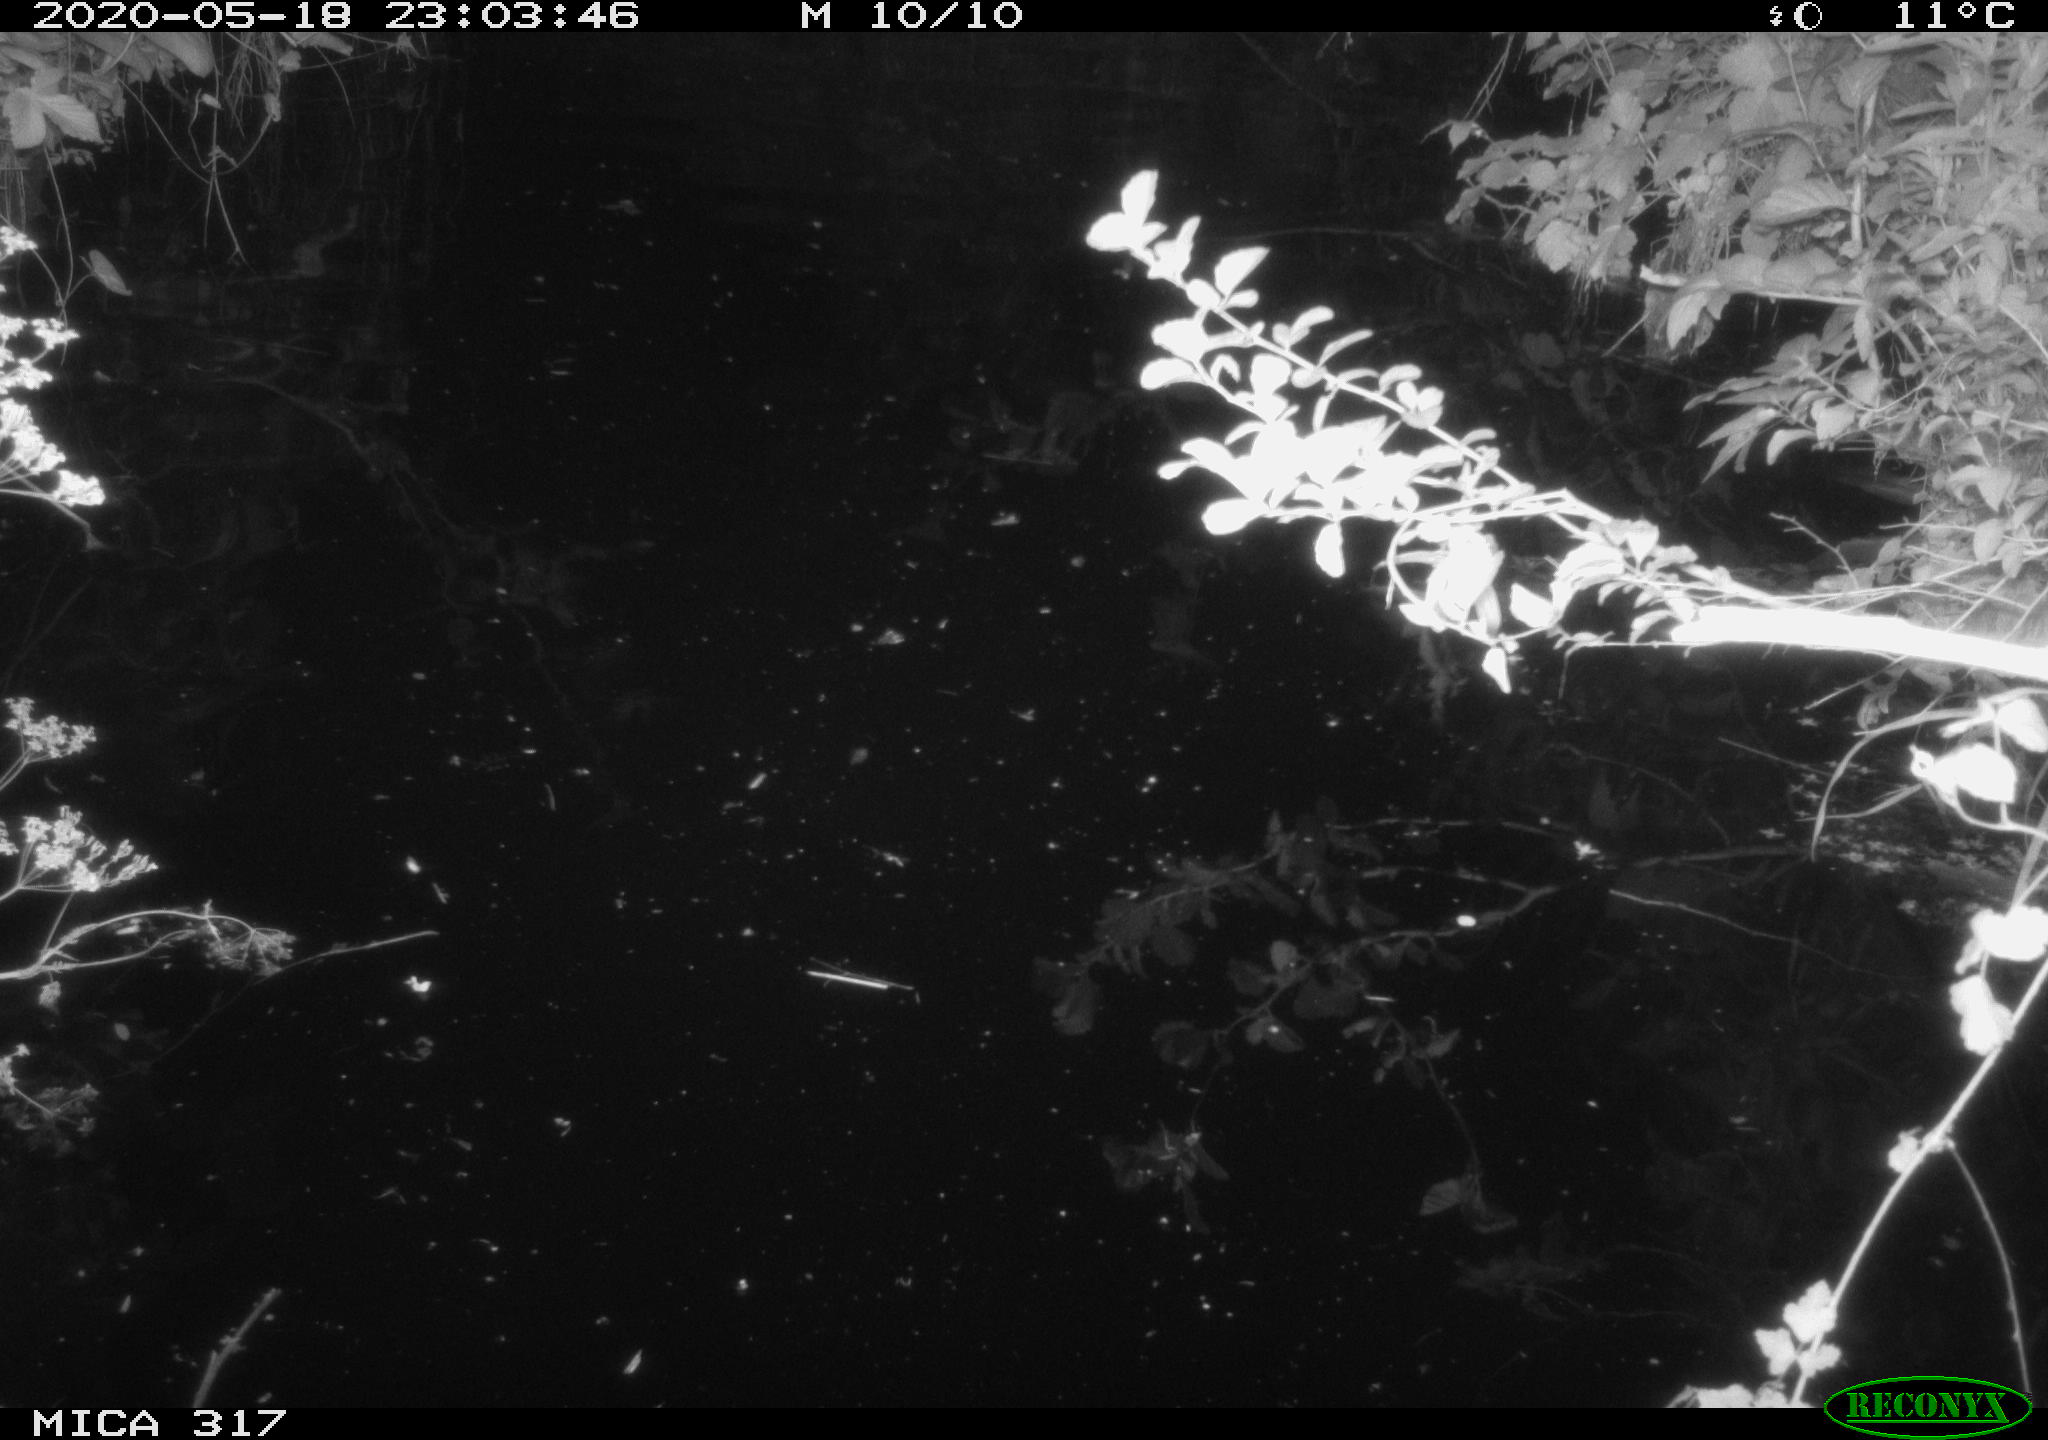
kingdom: Animalia
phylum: Chordata
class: Mammalia
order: Rodentia
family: Cricetidae
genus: Ondatra
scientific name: Ondatra zibethicus
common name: Muskrat
